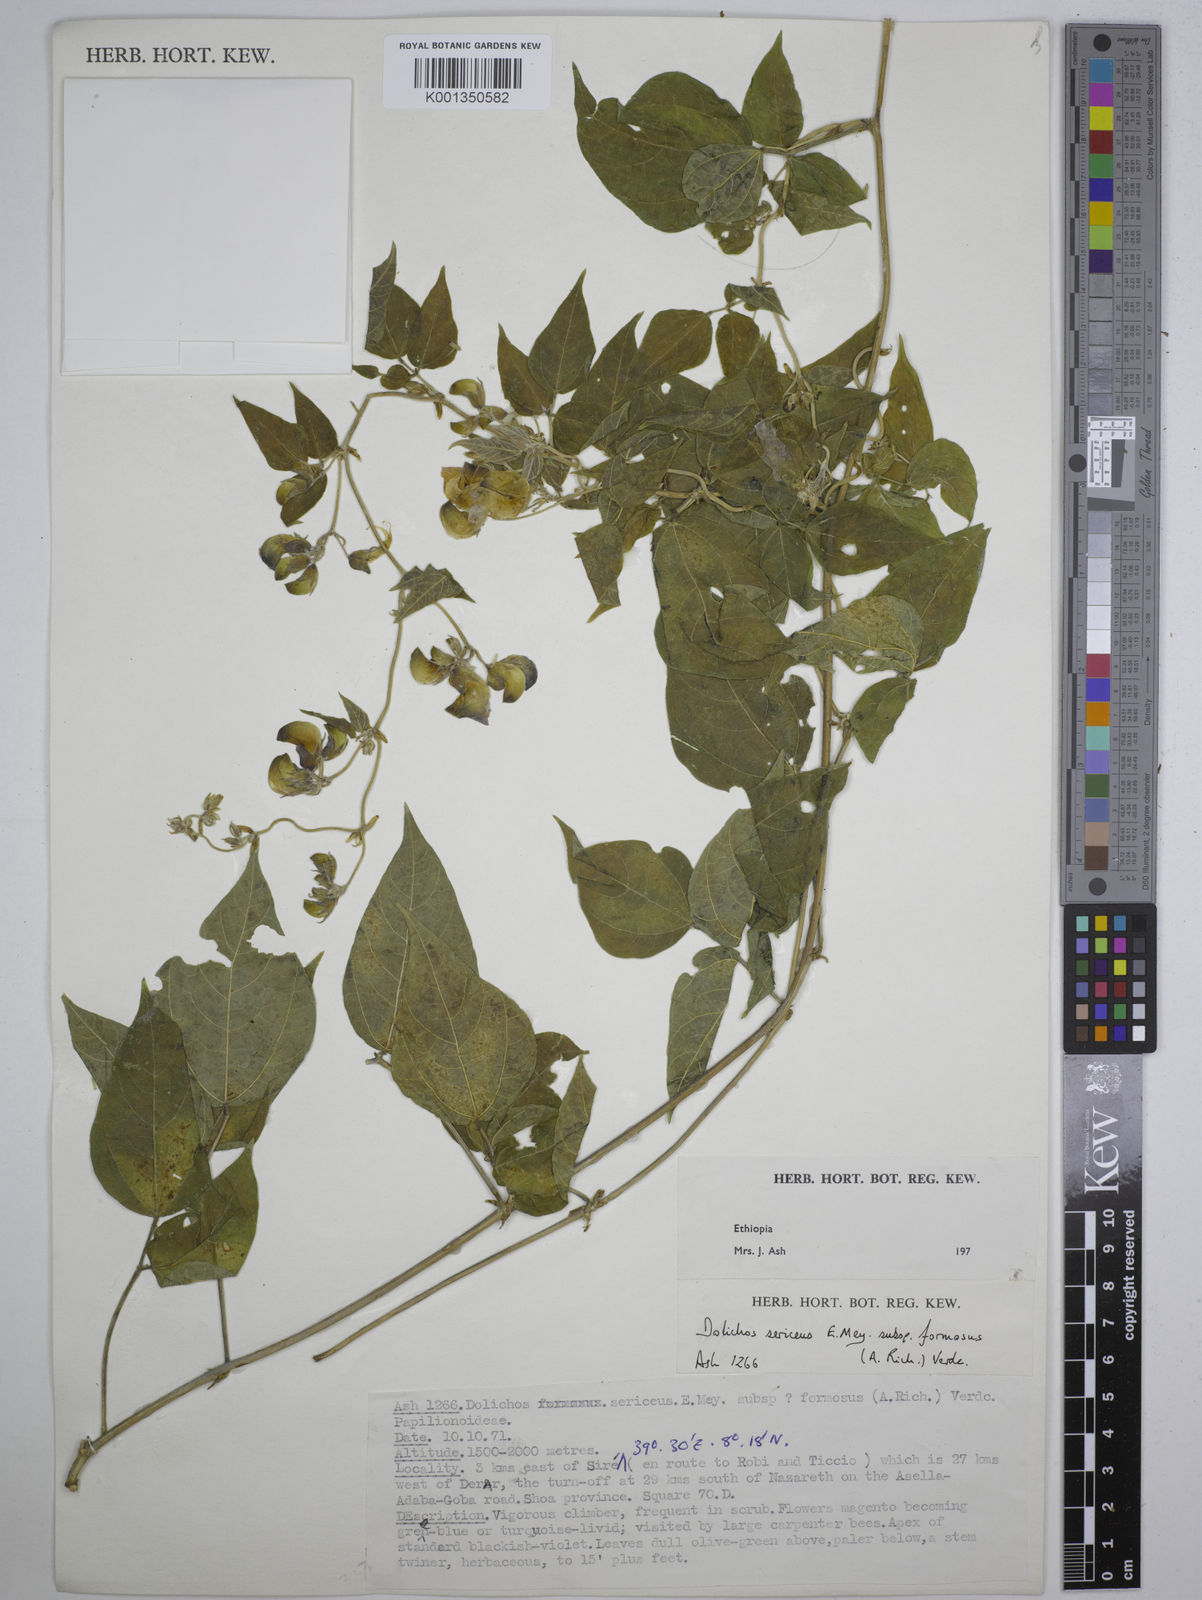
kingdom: Plantae
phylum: Tracheophyta
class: Magnoliopsida
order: Fabales
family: Fabaceae
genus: Dolichos
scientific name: Dolichos
